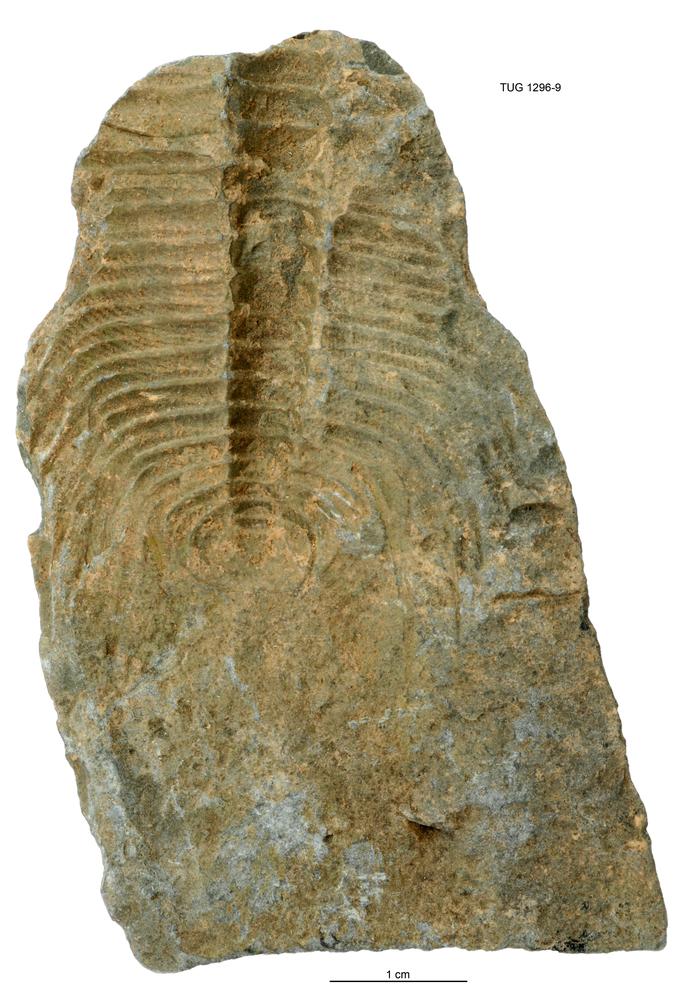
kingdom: Animalia
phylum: Arthropoda
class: Trilobita
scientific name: Trilobita
